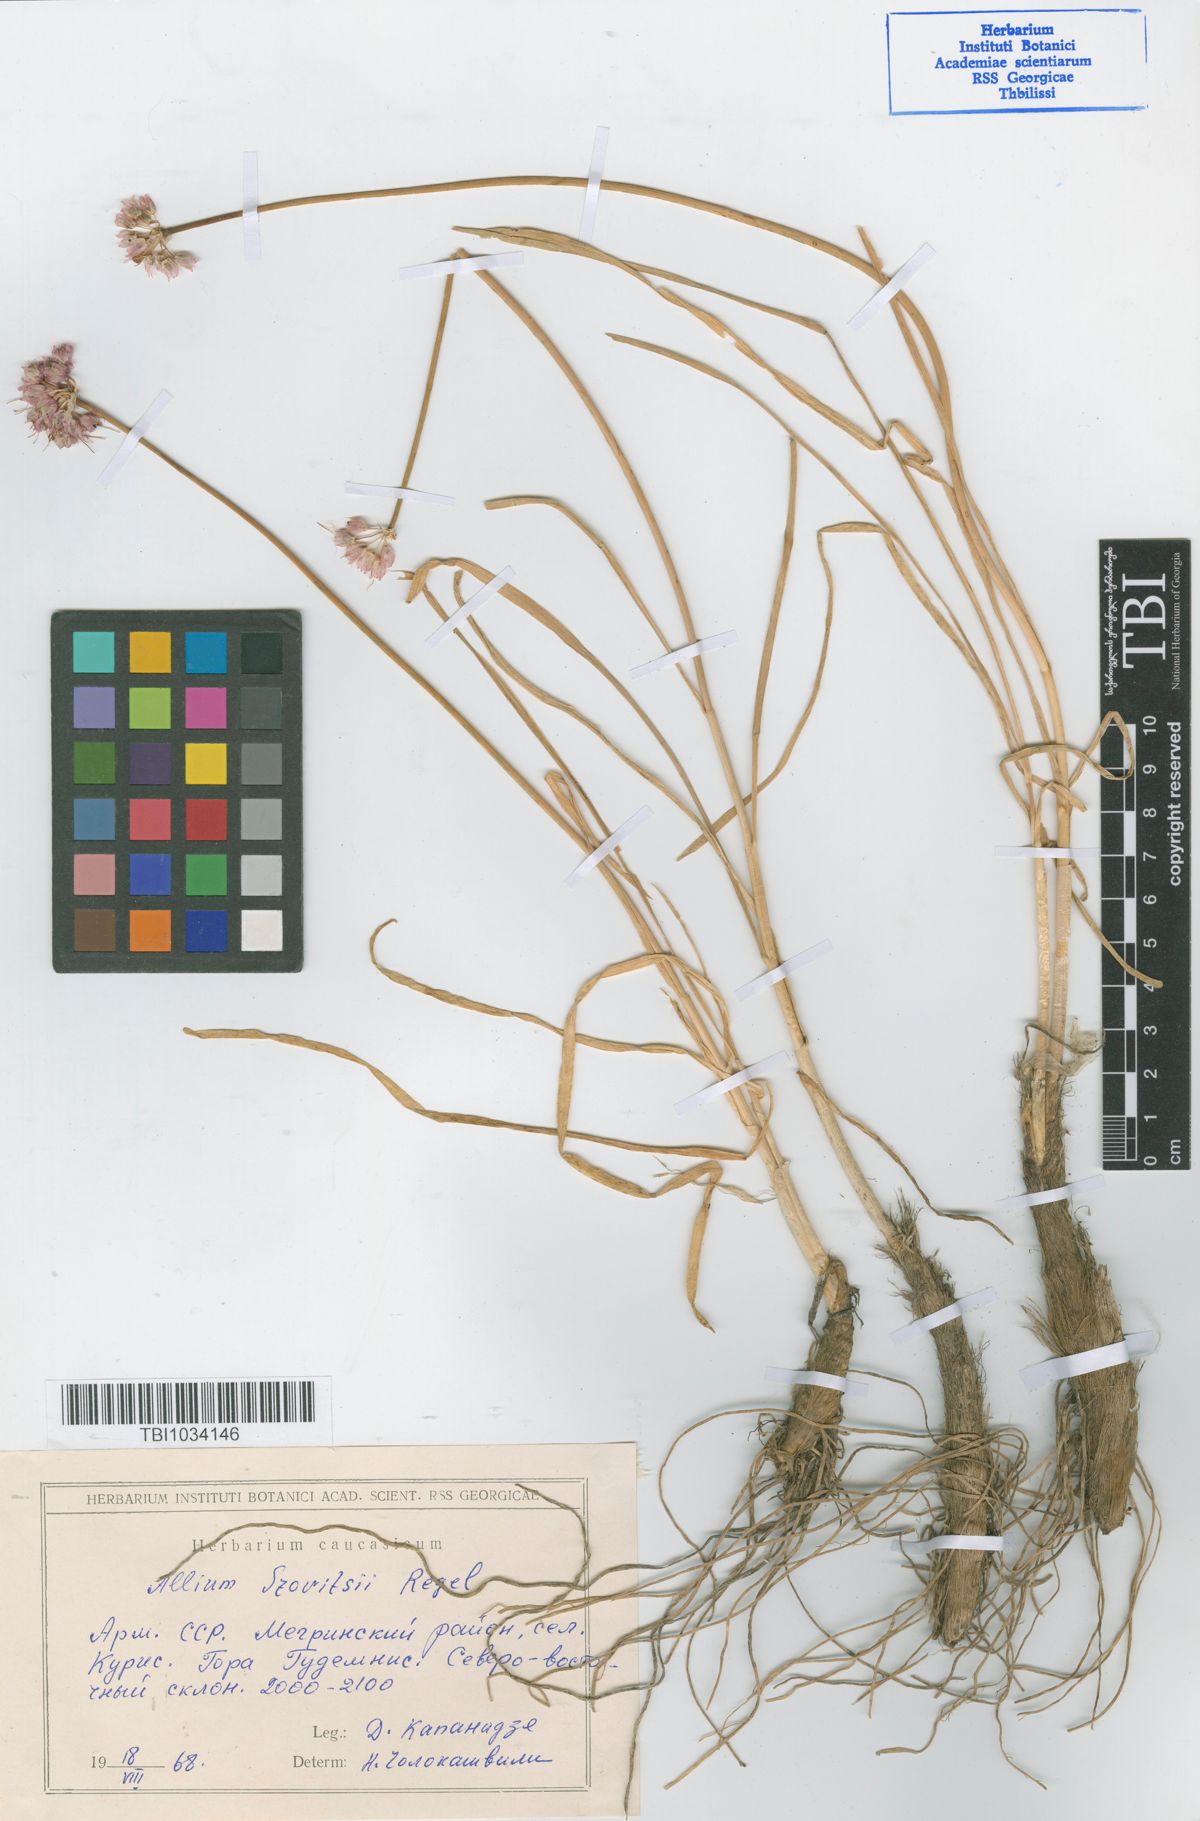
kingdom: Plantae
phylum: Tracheophyta
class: Liliopsida
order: Asparagales
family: Amaryllidaceae
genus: Allium
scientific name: Allium szovitsii
